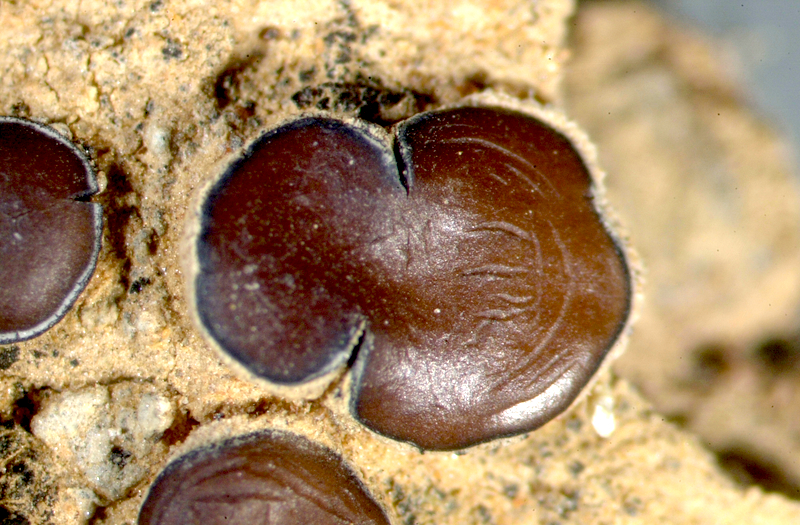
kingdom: Fungi
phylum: Ascomycota
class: Eurotiomycetes
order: Verrucariales
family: Verrucariaceae
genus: Catapyrenium
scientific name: Catapyrenium tenellum
